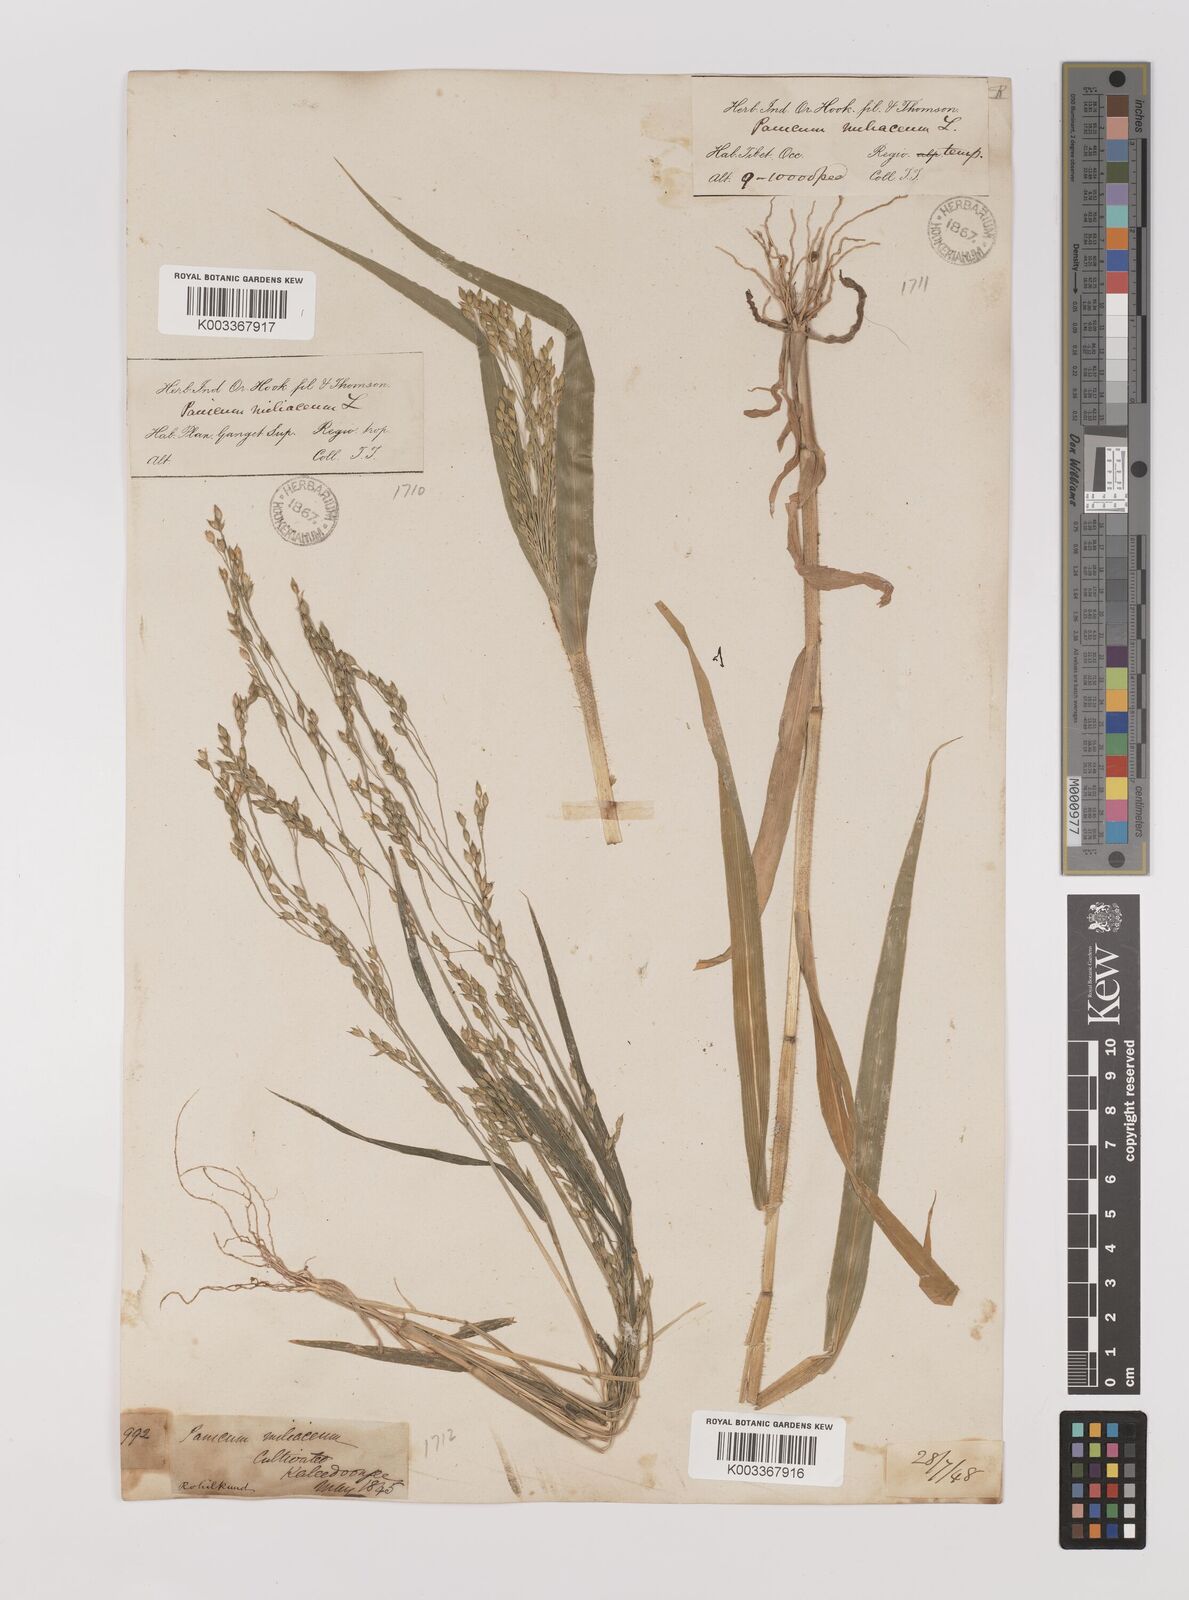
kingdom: Plantae
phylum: Tracheophyta
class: Liliopsida
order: Poales
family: Poaceae
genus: Panicum
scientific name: Panicum miliaceum
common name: Common millet
